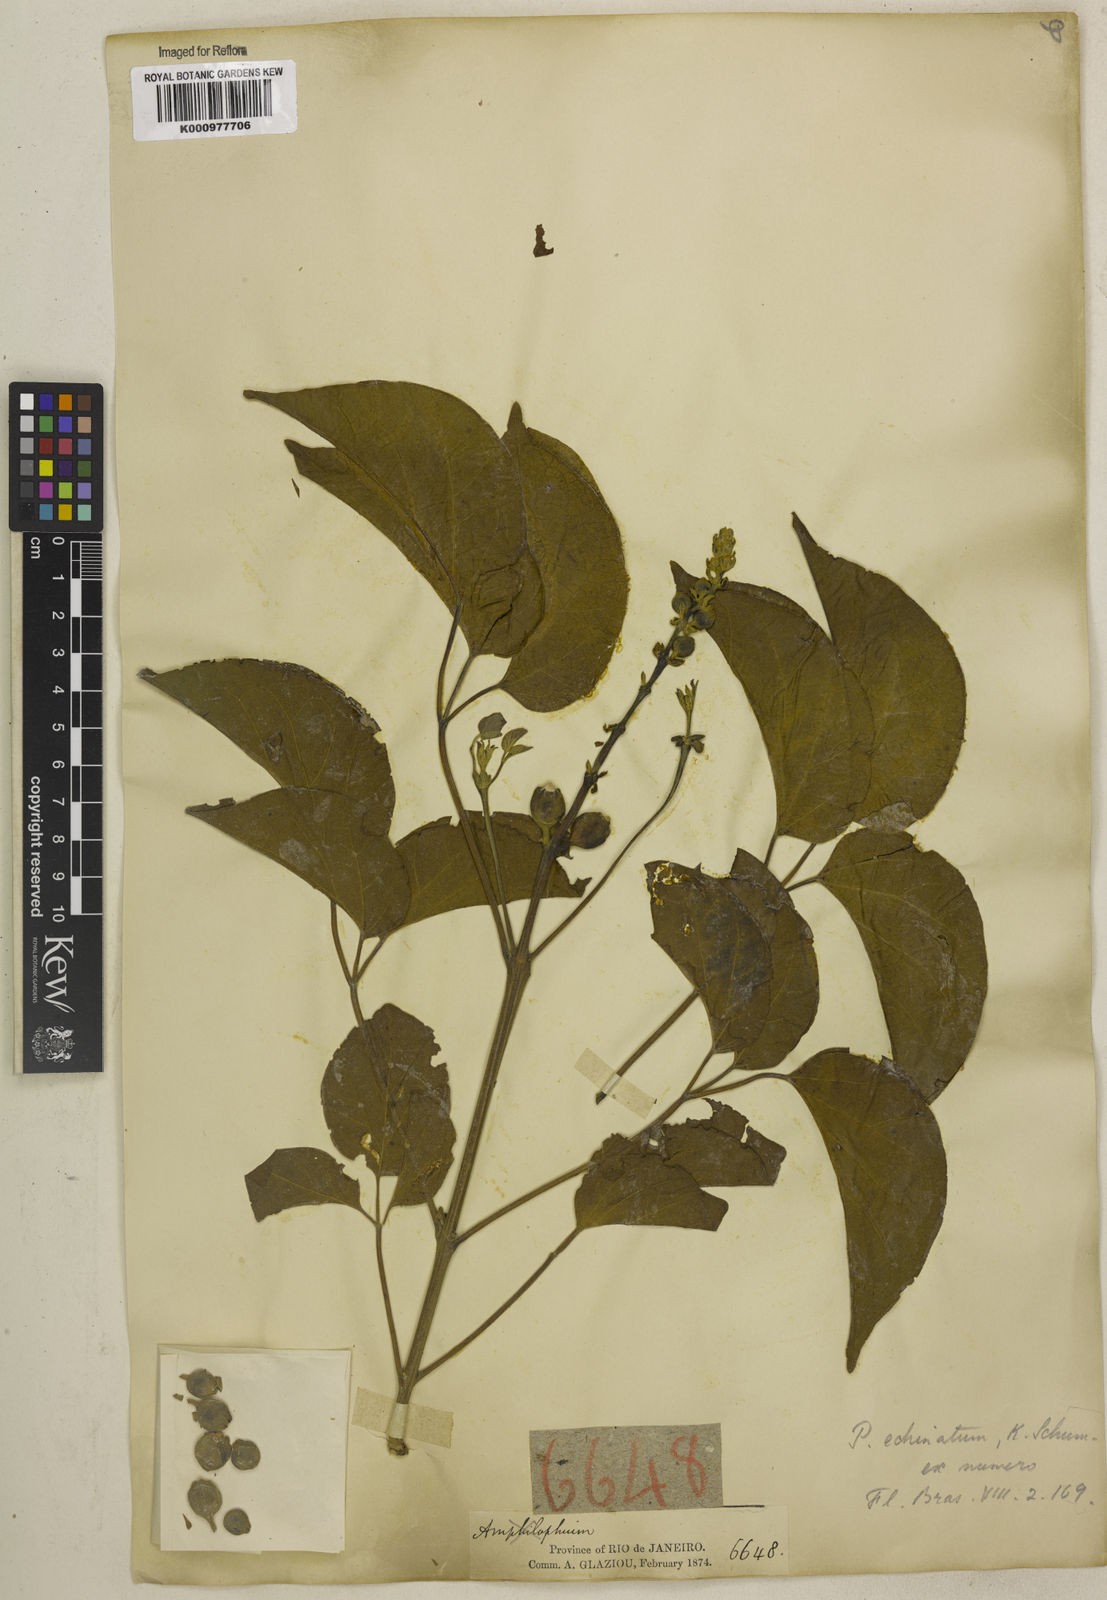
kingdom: Plantae
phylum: Tracheophyta
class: Magnoliopsida
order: Lamiales
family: Bignoniaceae
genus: Amphilophium
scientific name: Amphilophium crucigerum
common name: Monkey comb
